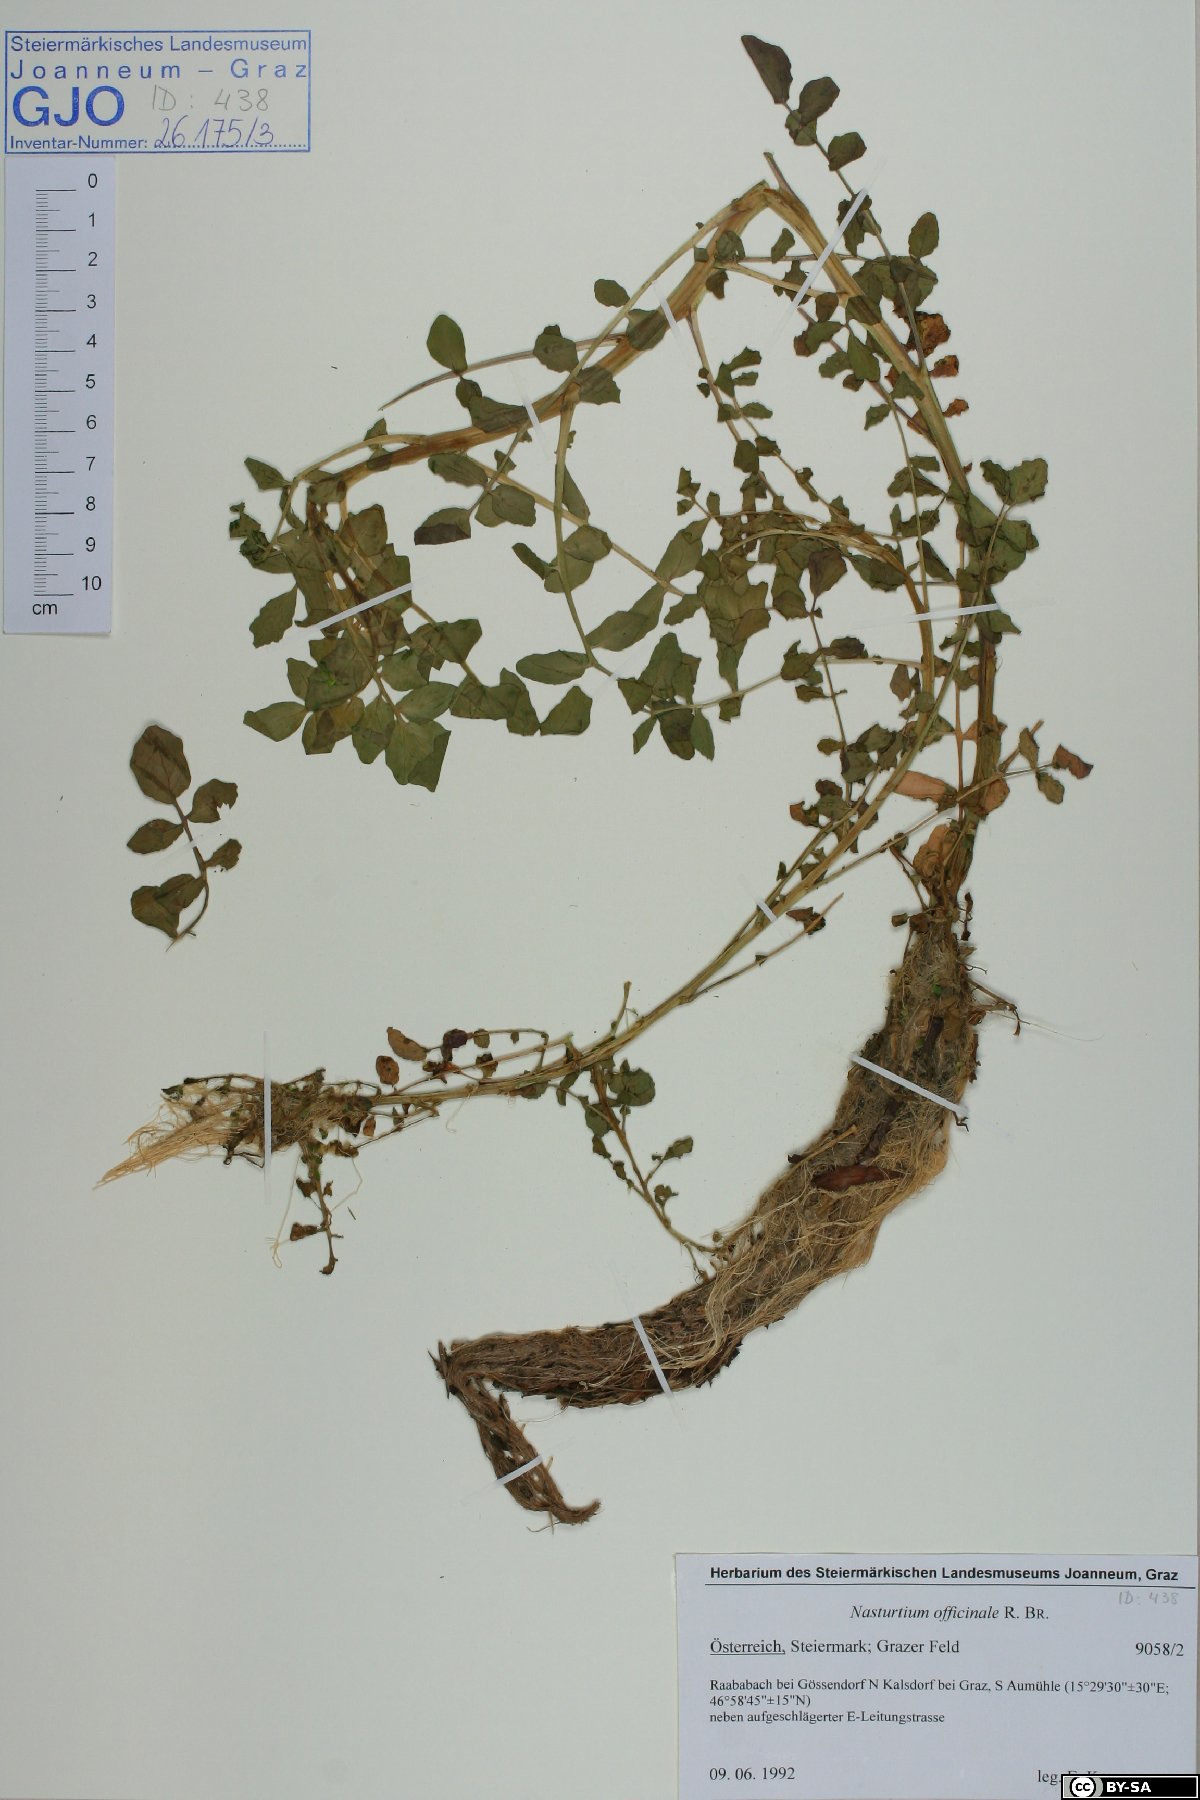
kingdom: Plantae
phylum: Tracheophyta
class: Magnoliopsida
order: Brassicales
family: Brassicaceae
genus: Nasturtium
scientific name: Nasturtium officinale
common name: Watercress
